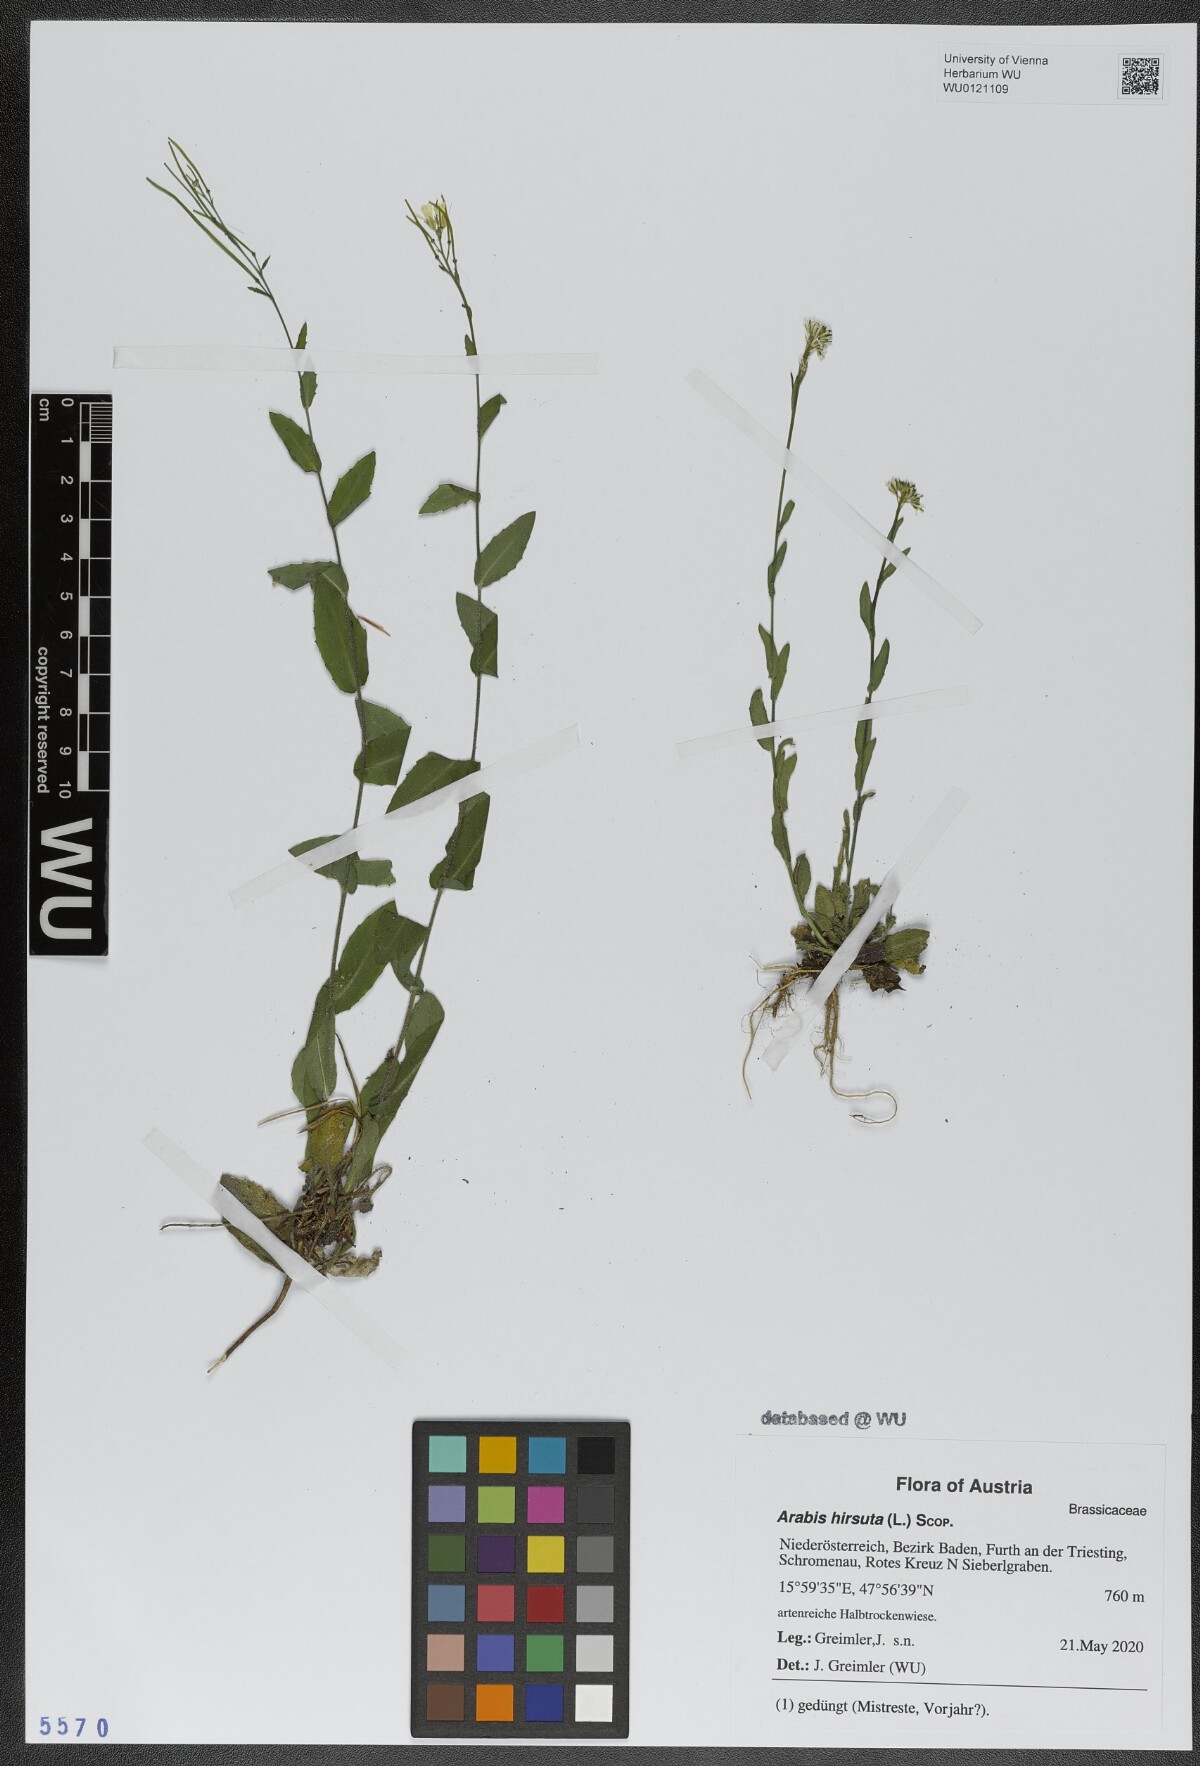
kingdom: Plantae
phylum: Tracheophyta
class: Magnoliopsida
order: Brassicales
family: Brassicaceae
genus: Arabis
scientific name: Arabis hirsuta
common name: Hairy rock-cress
